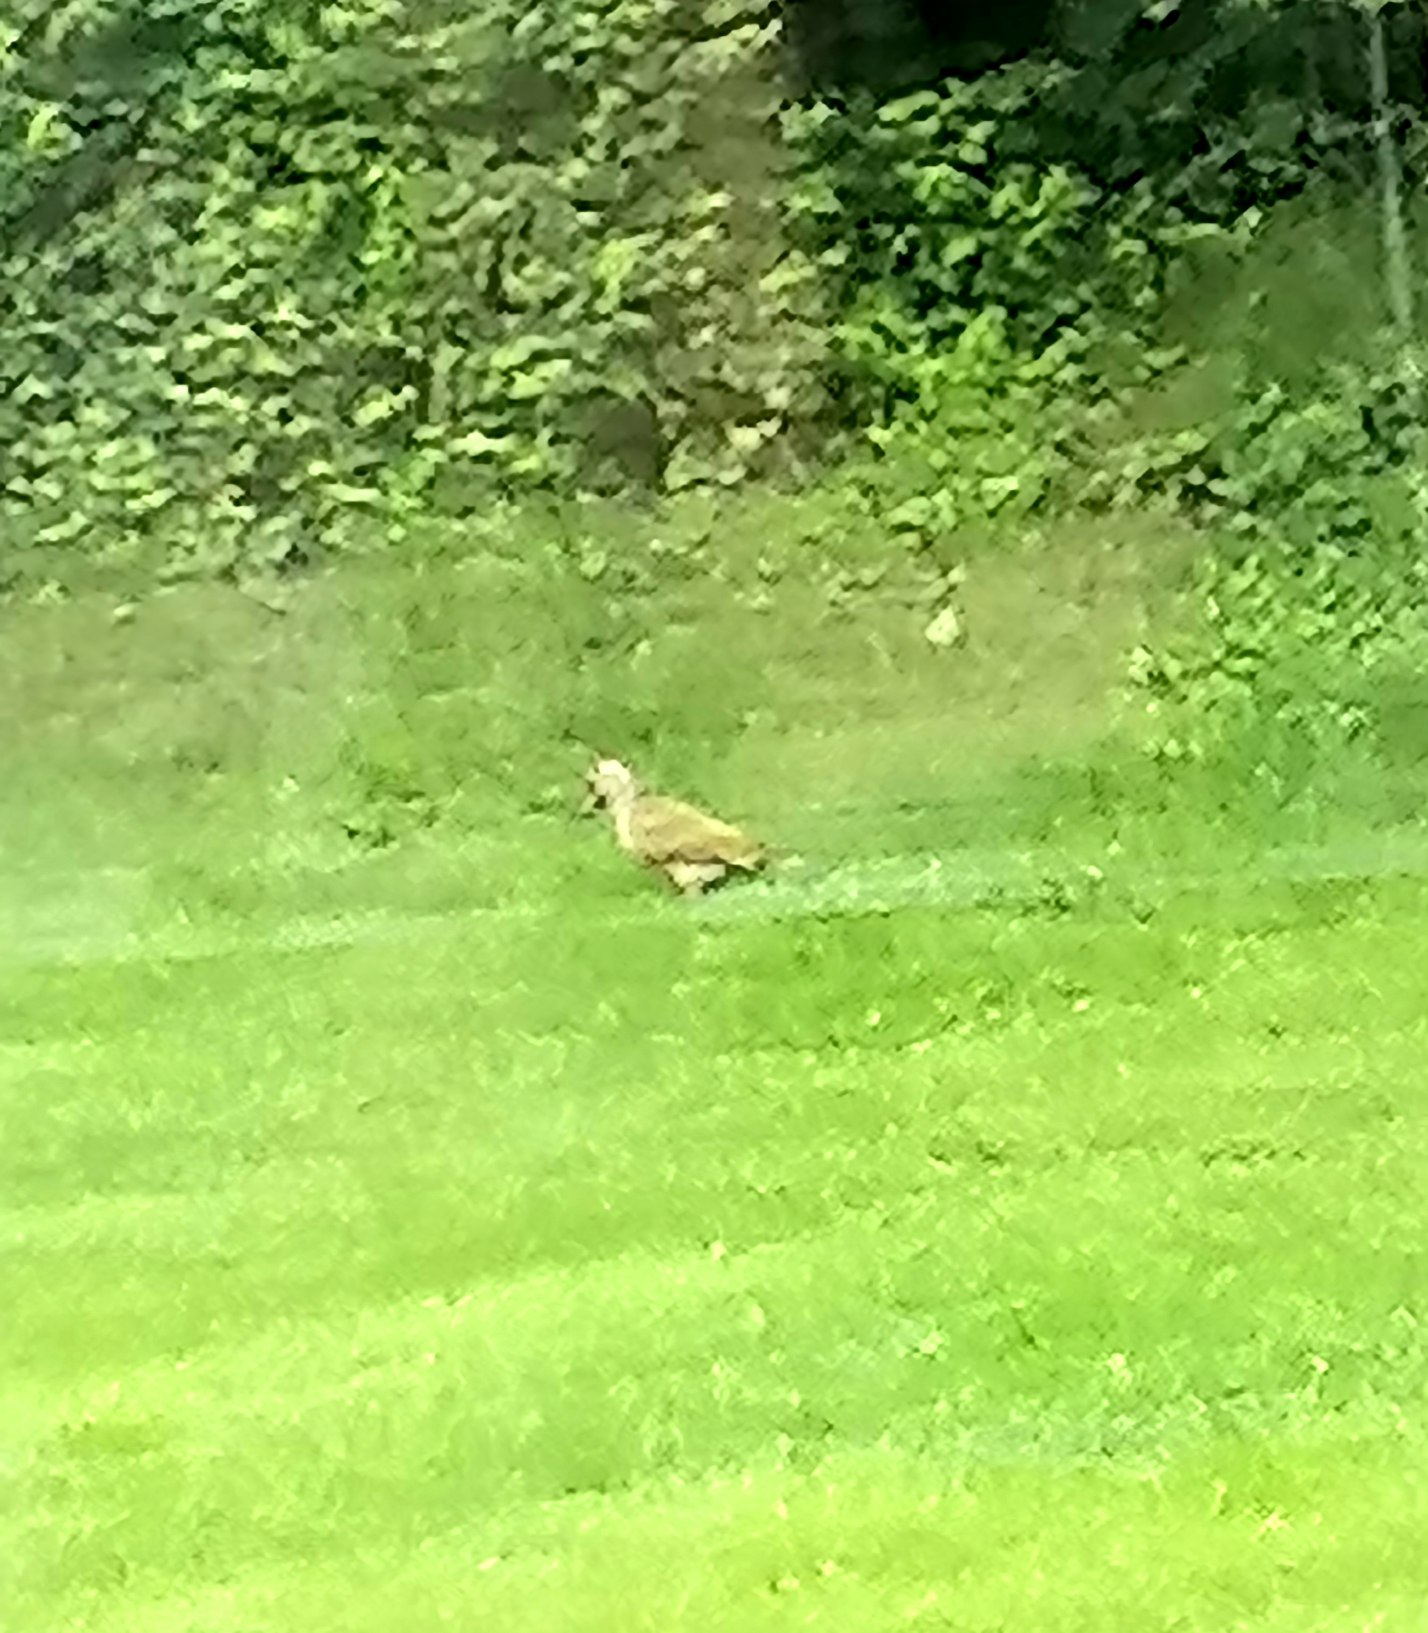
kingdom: Animalia
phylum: Chordata
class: Aves
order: Piciformes
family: Picidae
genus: Picus
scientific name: Picus viridis
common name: Grønspætte
